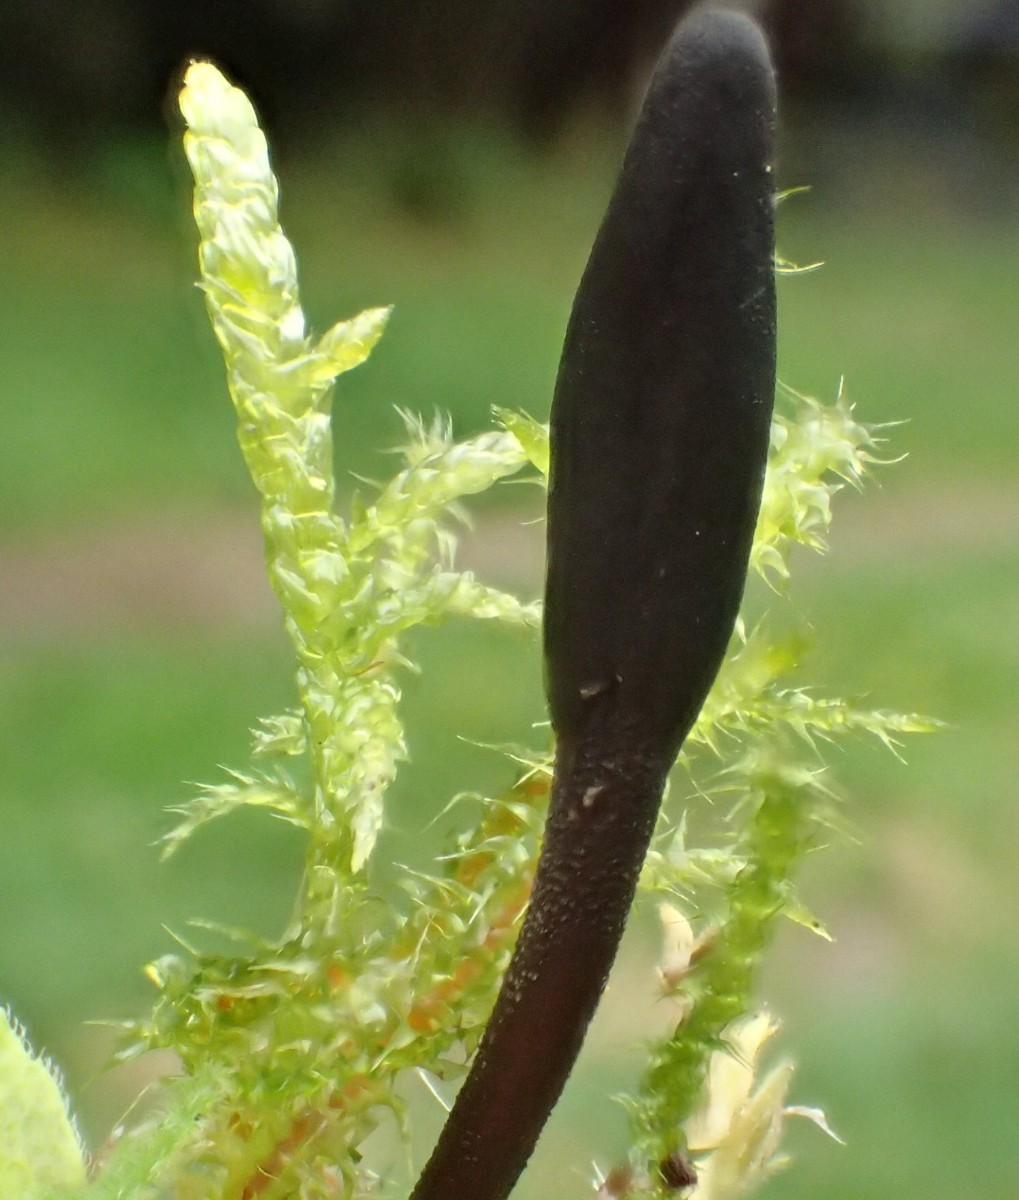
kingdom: Fungi
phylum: Ascomycota
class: Geoglossomycetes
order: Geoglossales
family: Geoglossaceae
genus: Geoglossum
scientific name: Geoglossum umbratile
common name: slank jordtunge
